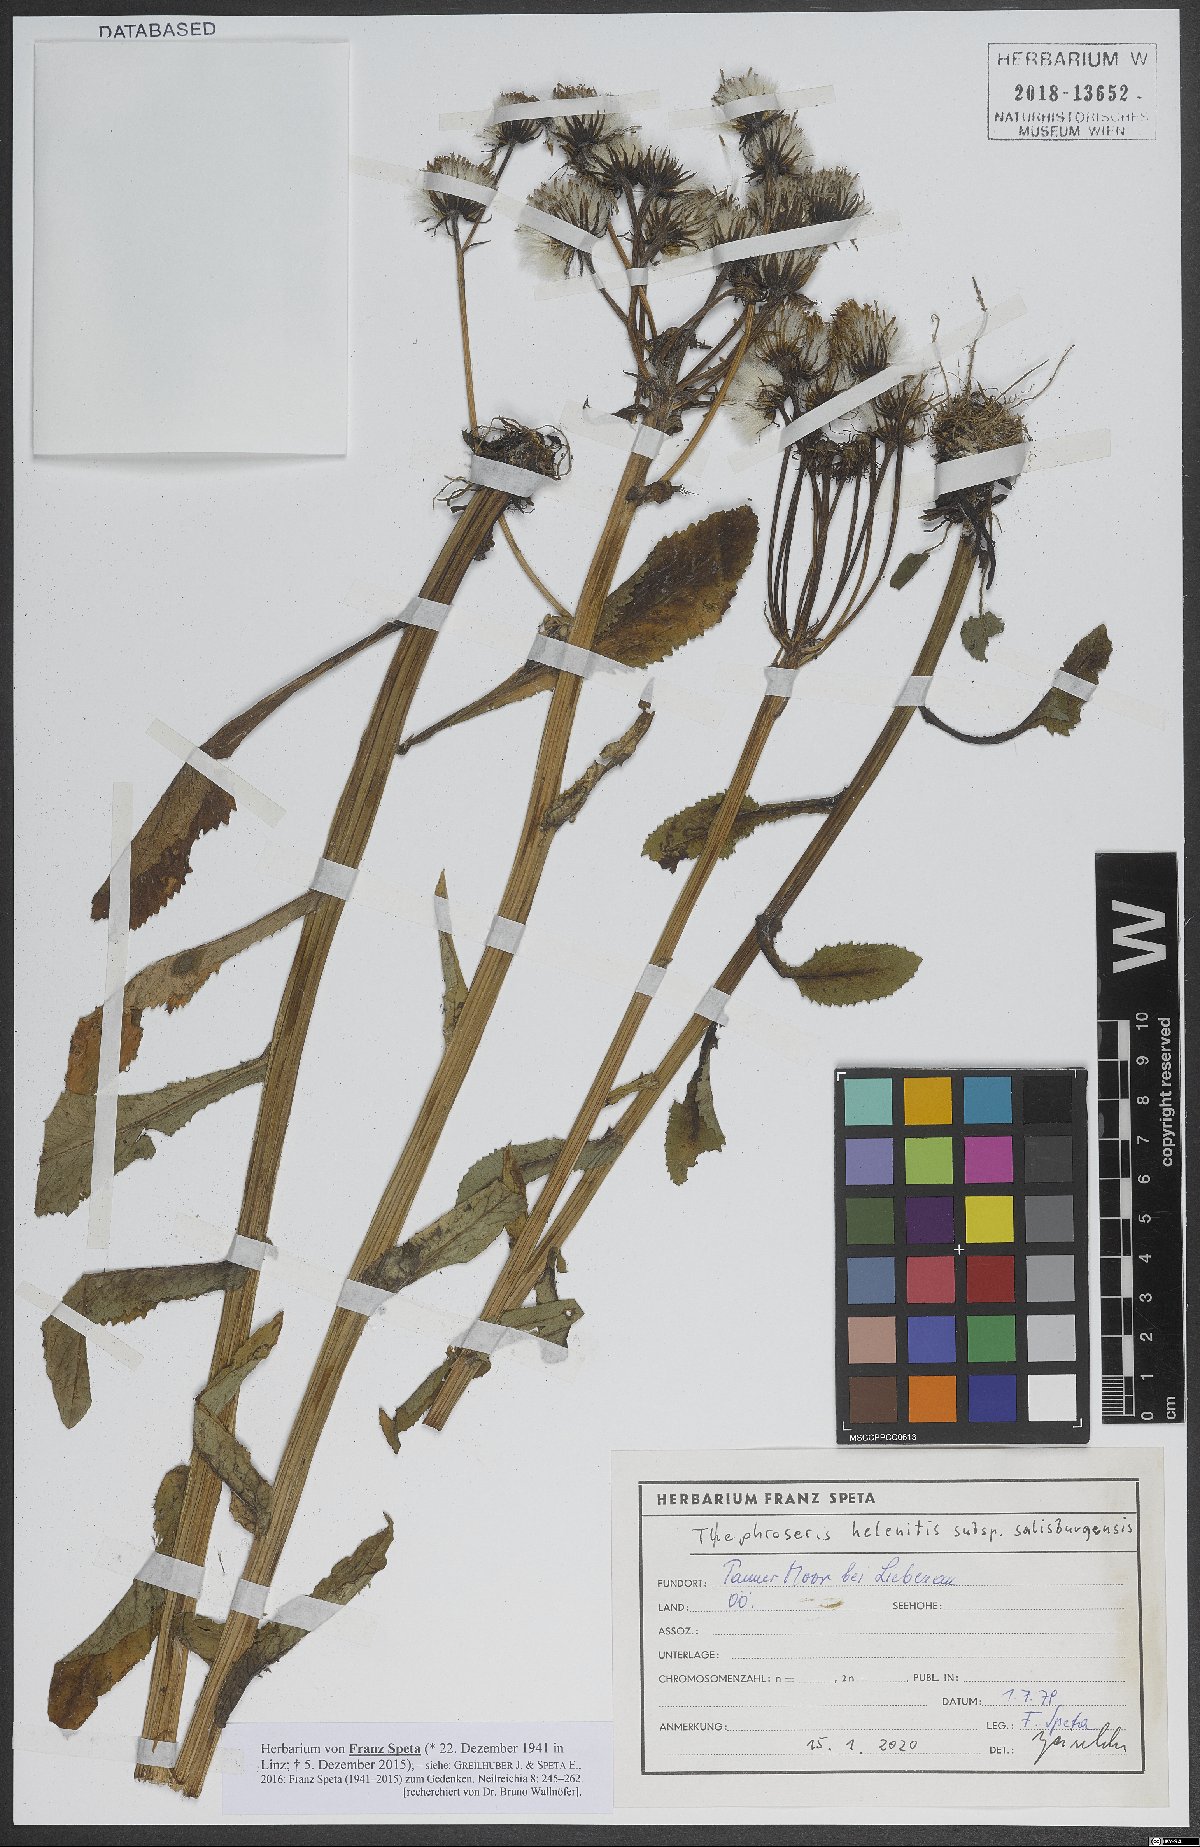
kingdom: Plantae
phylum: Tracheophyta
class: Magnoliopsida
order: Asterales
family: Asteraceae
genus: Tephroseris
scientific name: Tephroseris helenitis
